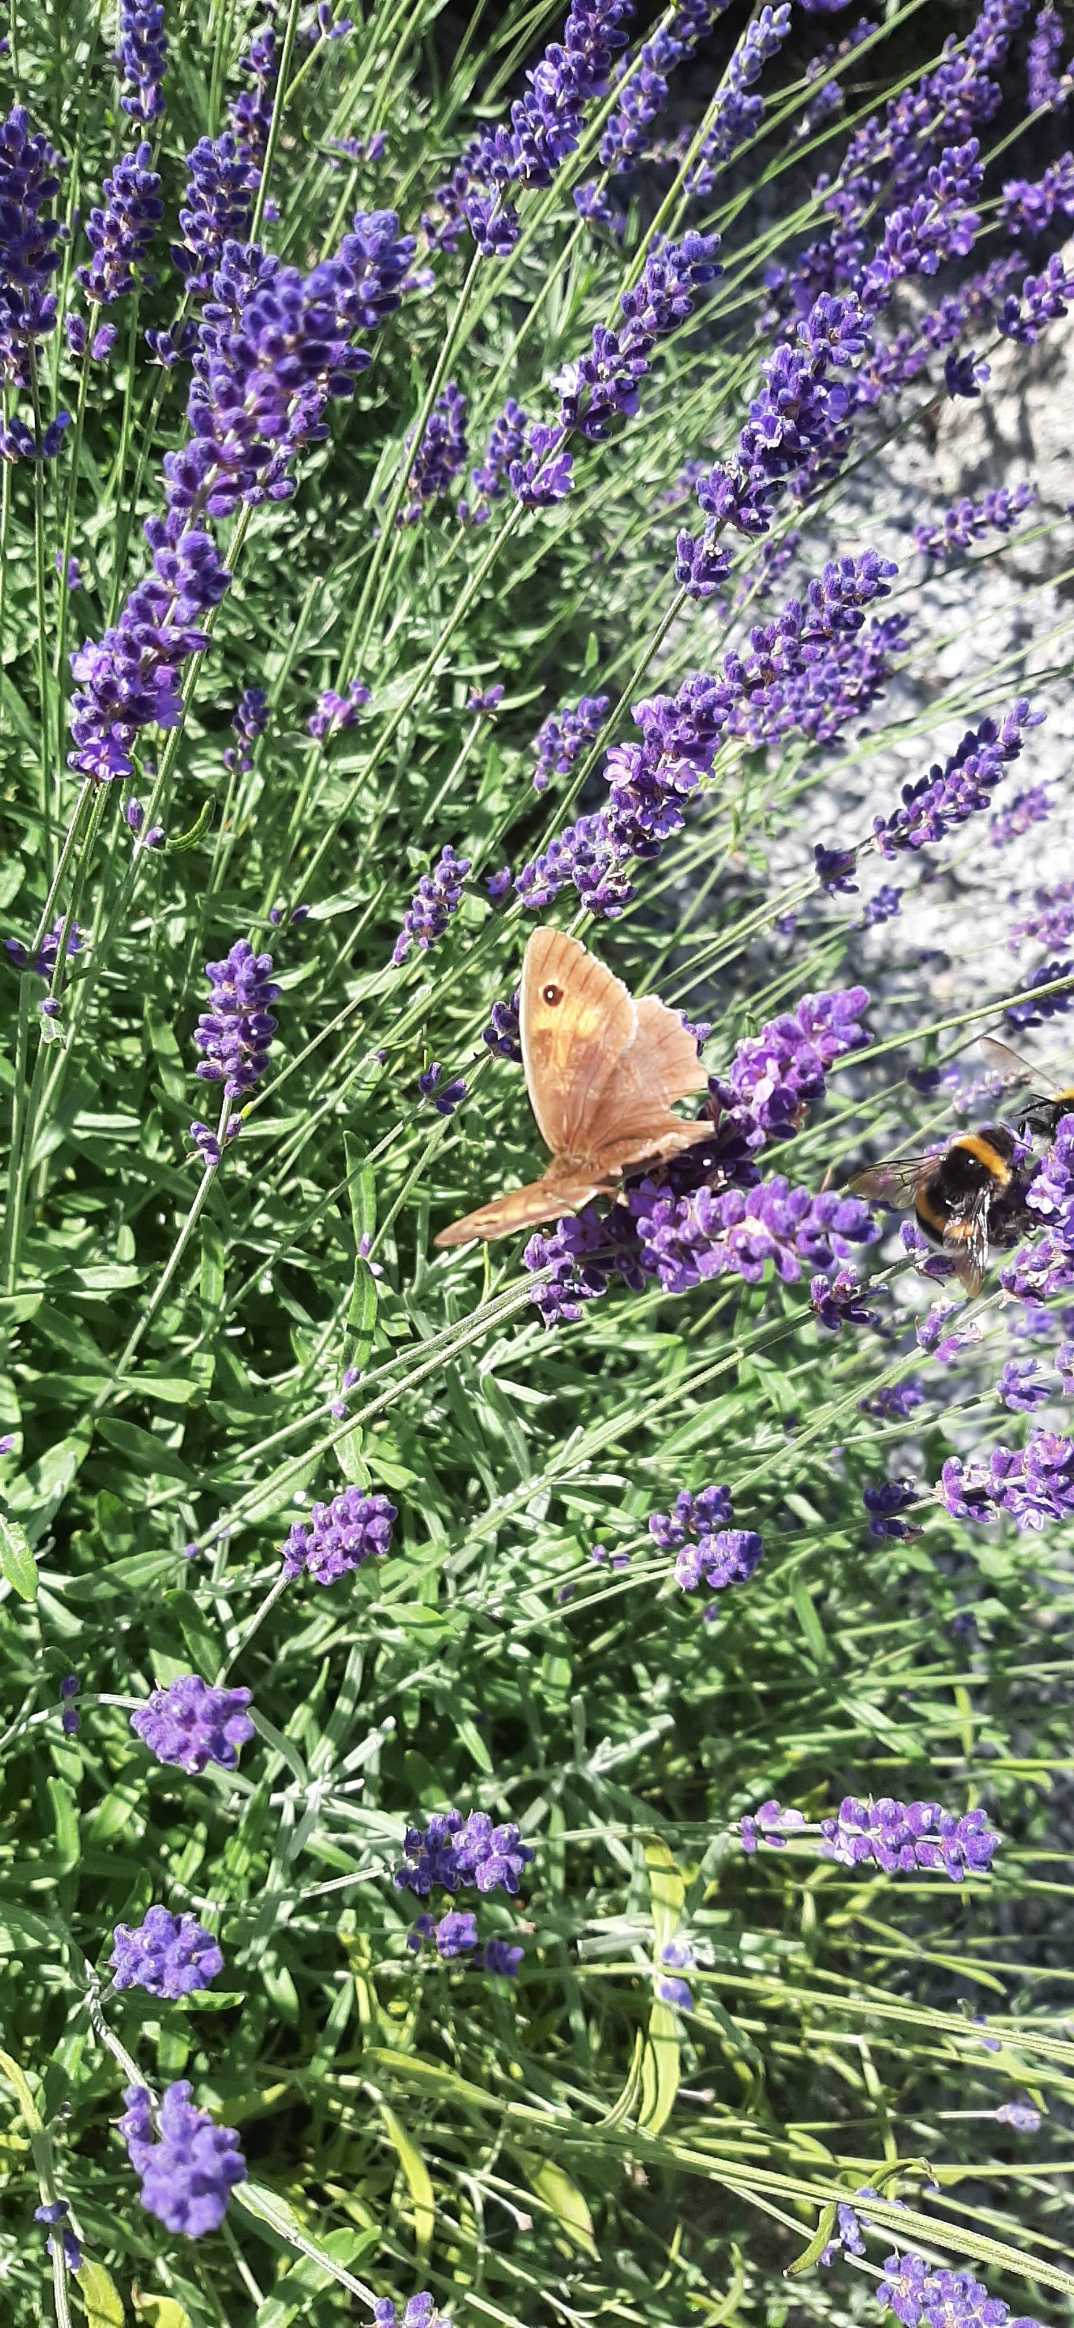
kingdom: Animalia
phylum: Arthropoda
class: Insecta
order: Lepidoptera
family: Nymphalidae
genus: Maniola
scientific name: Maniola jurtina
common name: Græsrandøje
